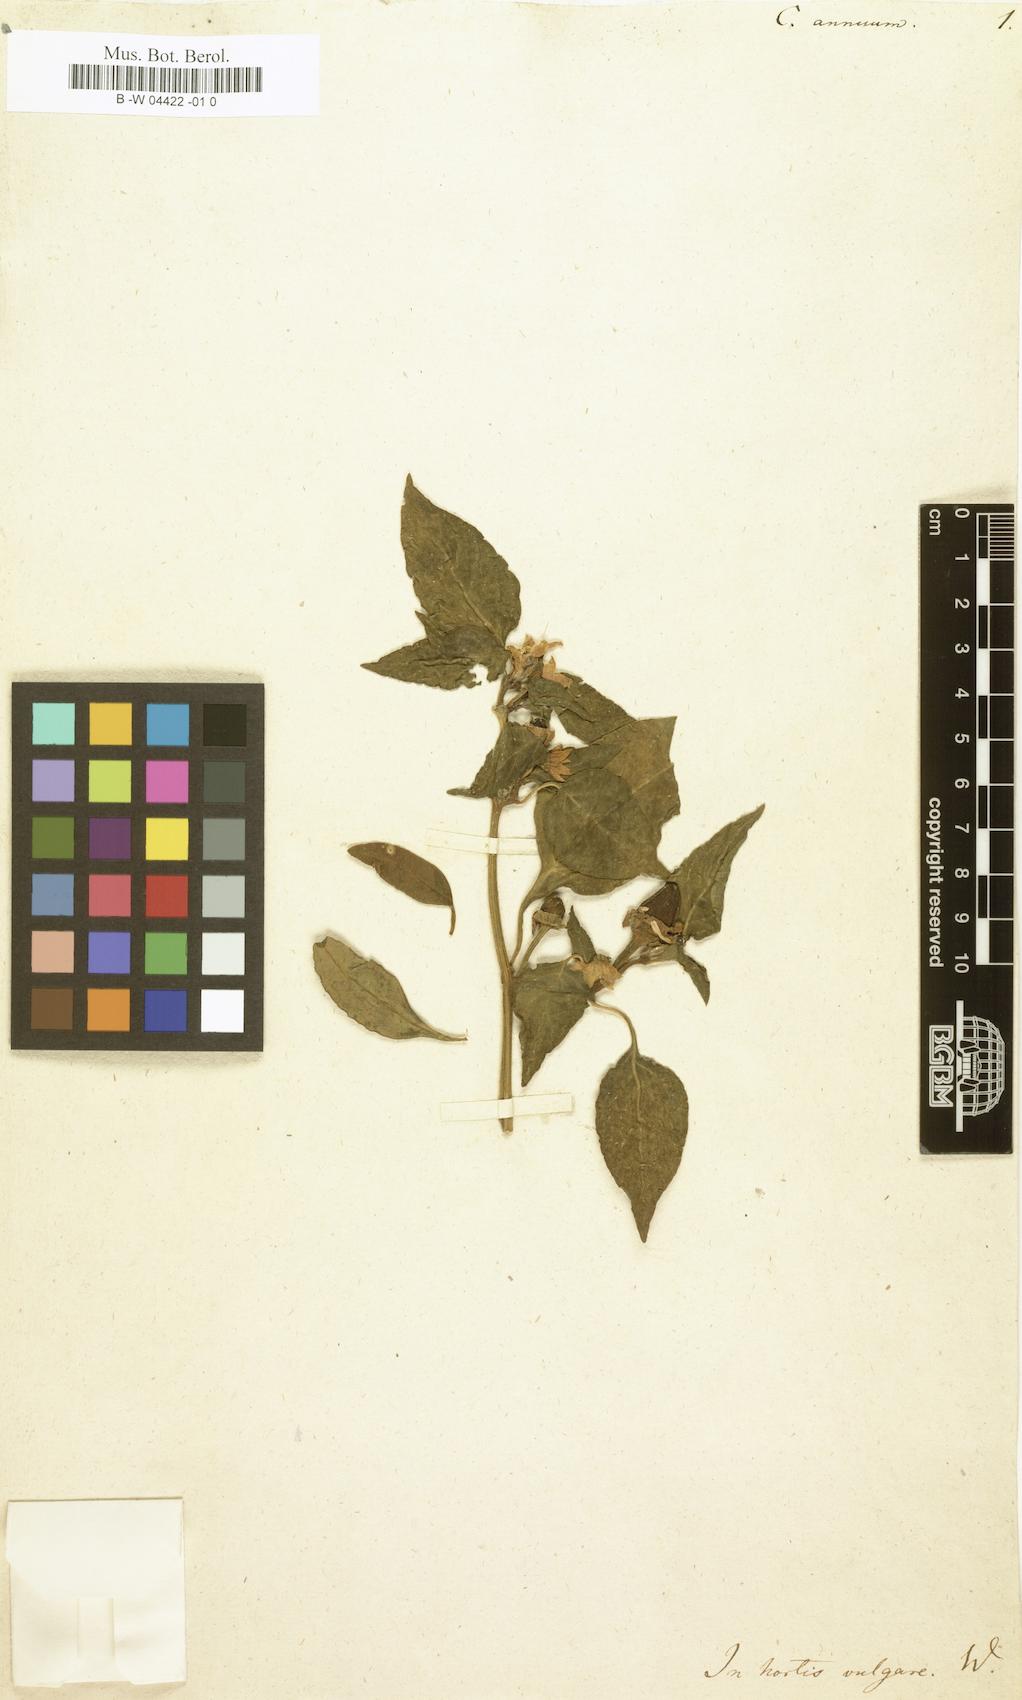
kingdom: Plantae
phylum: Tracheophyta
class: Magnoliopsida
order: Solanales
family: Solanaceae
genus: Capsicum
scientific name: Capsicum annuum
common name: Sweet pepper
